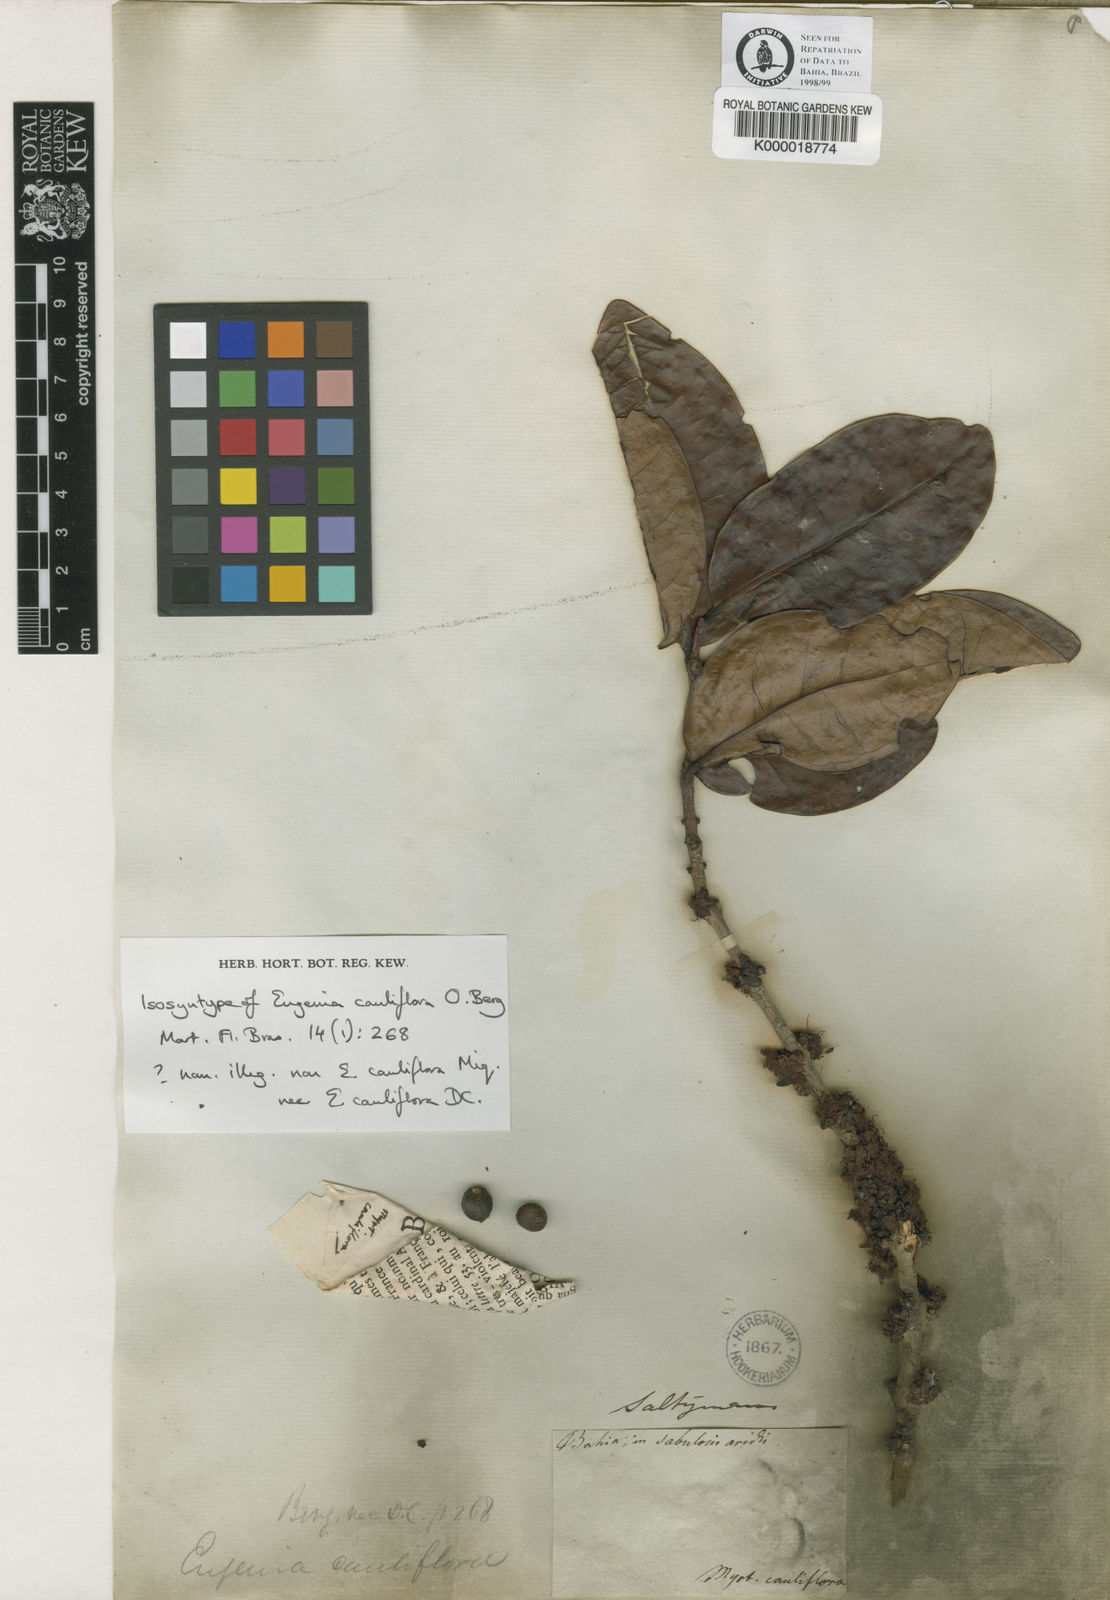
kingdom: Plantae
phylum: Tracheophyta
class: Magnoliopsida
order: Myrtales
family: Myrtaceae
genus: Eugenia
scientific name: Eugenia warmingiana
